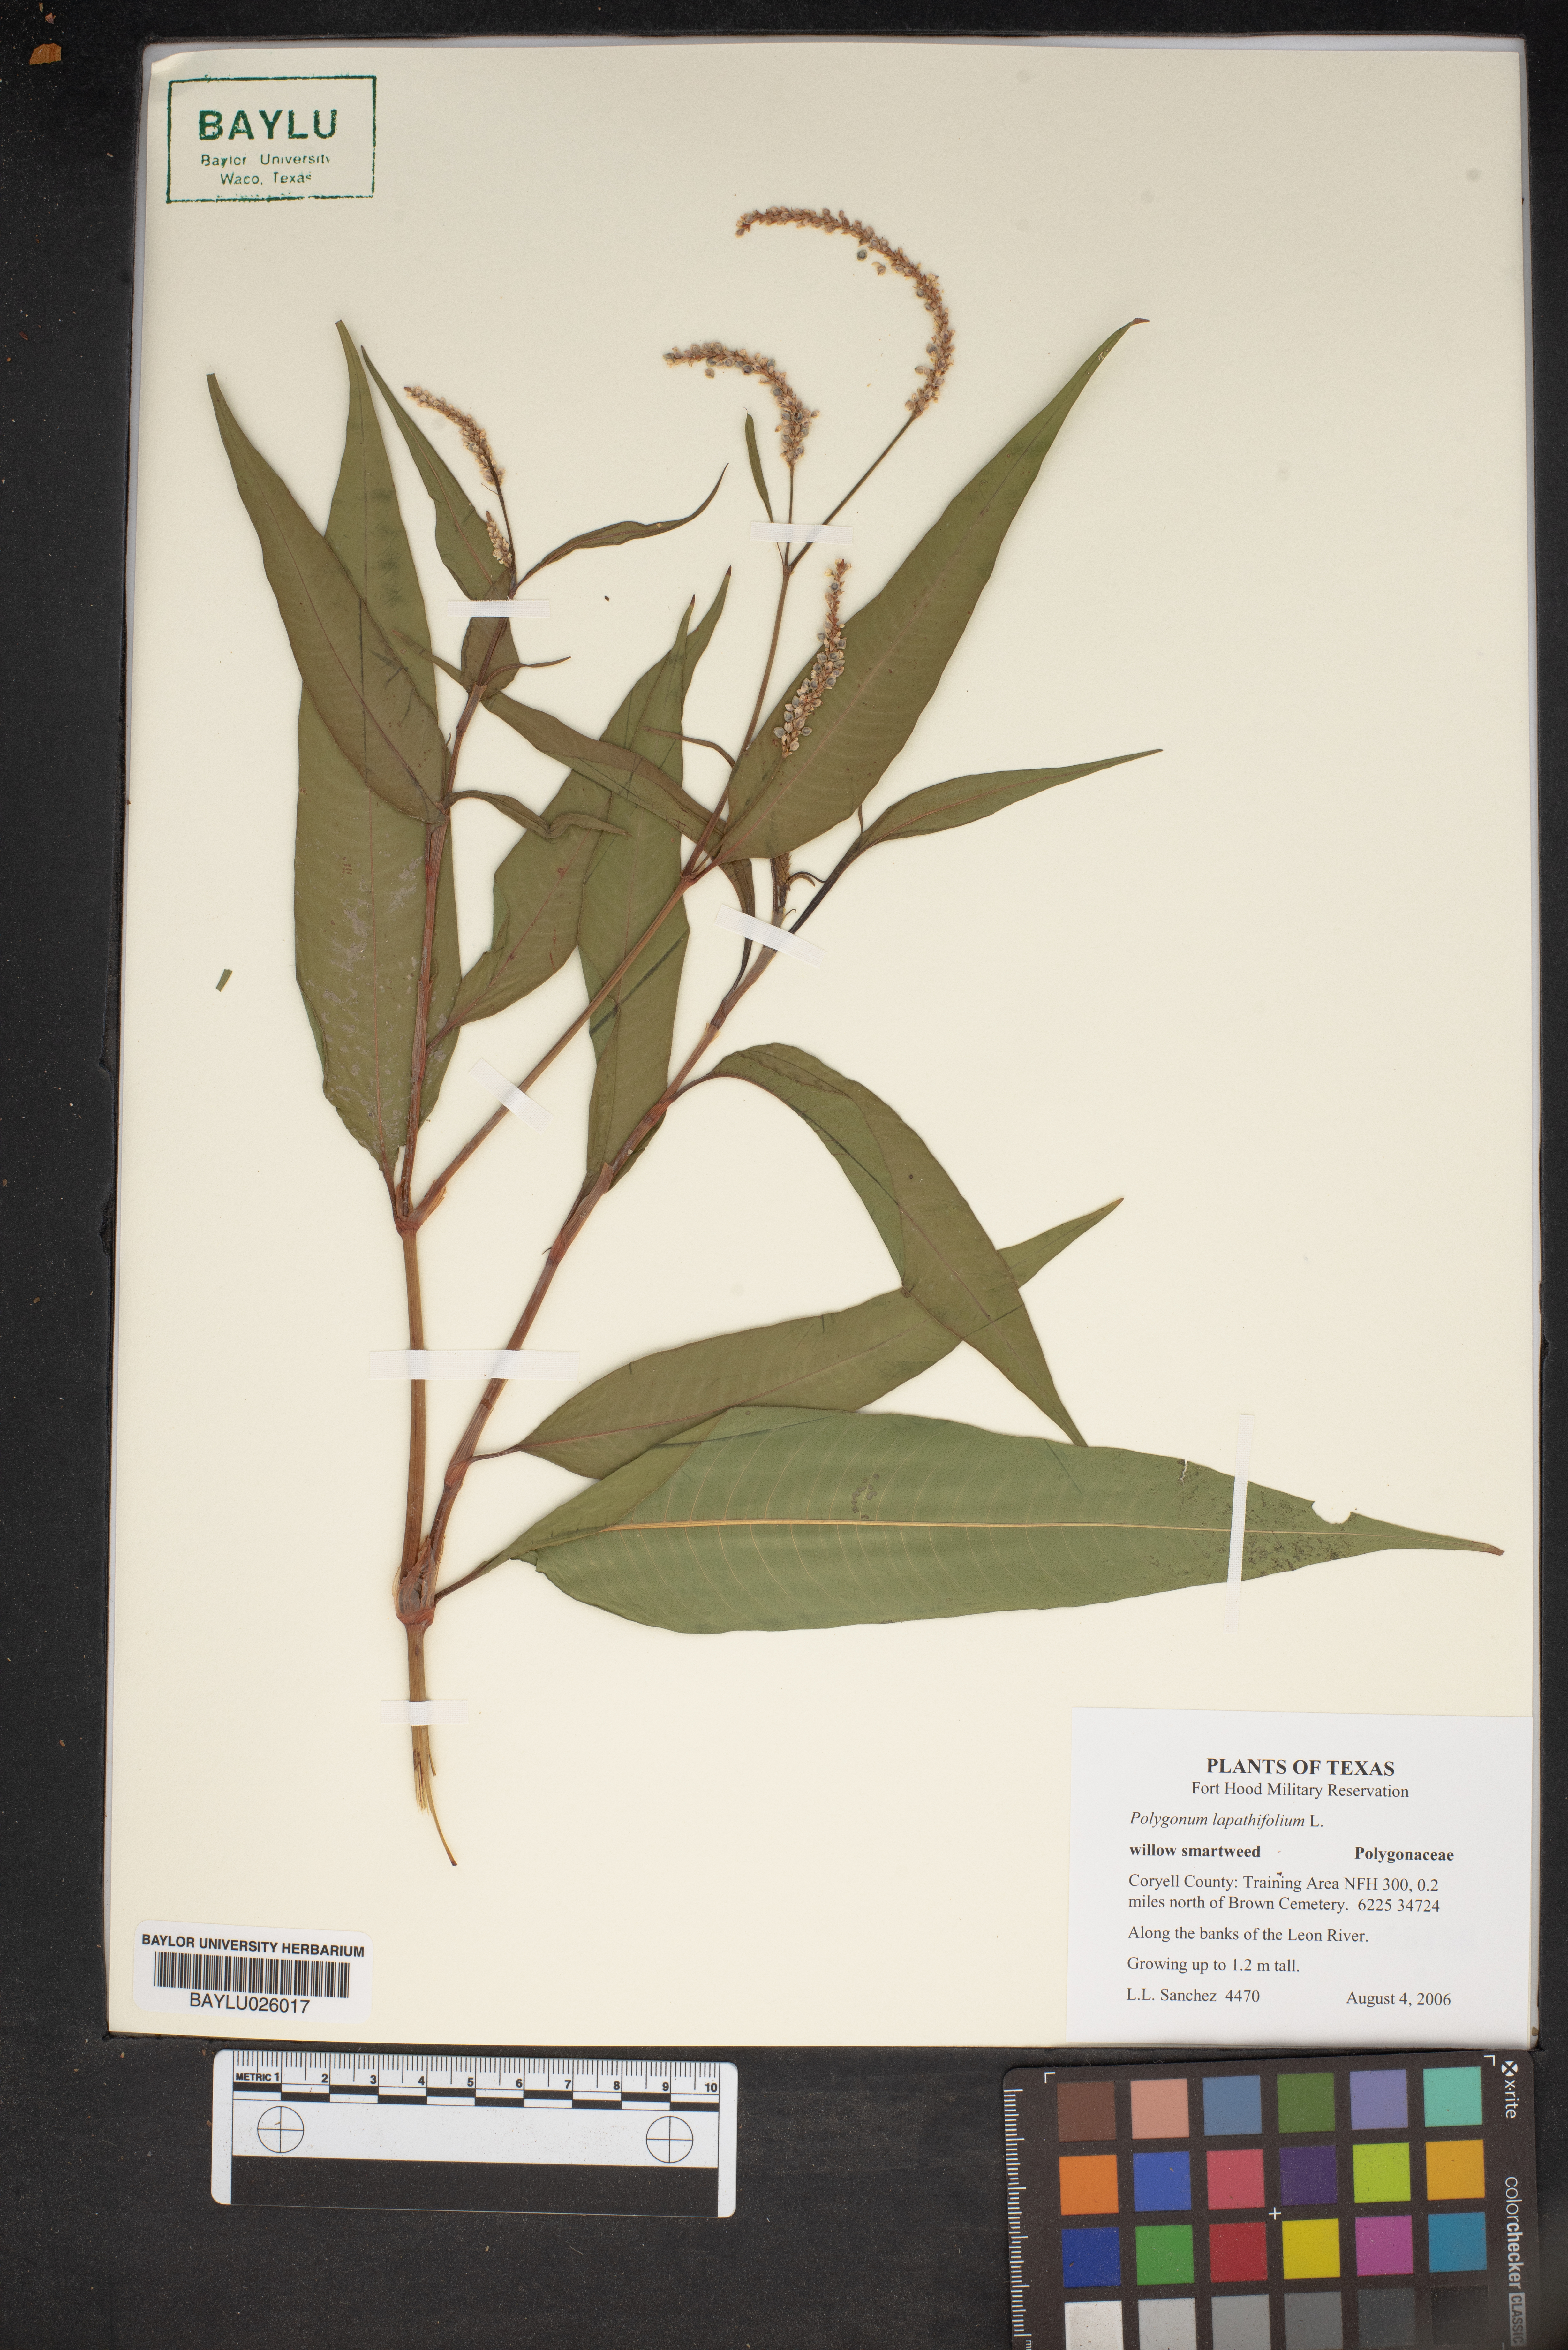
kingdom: Plantae
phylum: Tracheophyta
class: Magnoliopsida
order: Caryophyllales
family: Polygonaceae
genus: Persicaria
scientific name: Persicaria lapathifolia
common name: Curlytop knotweed
